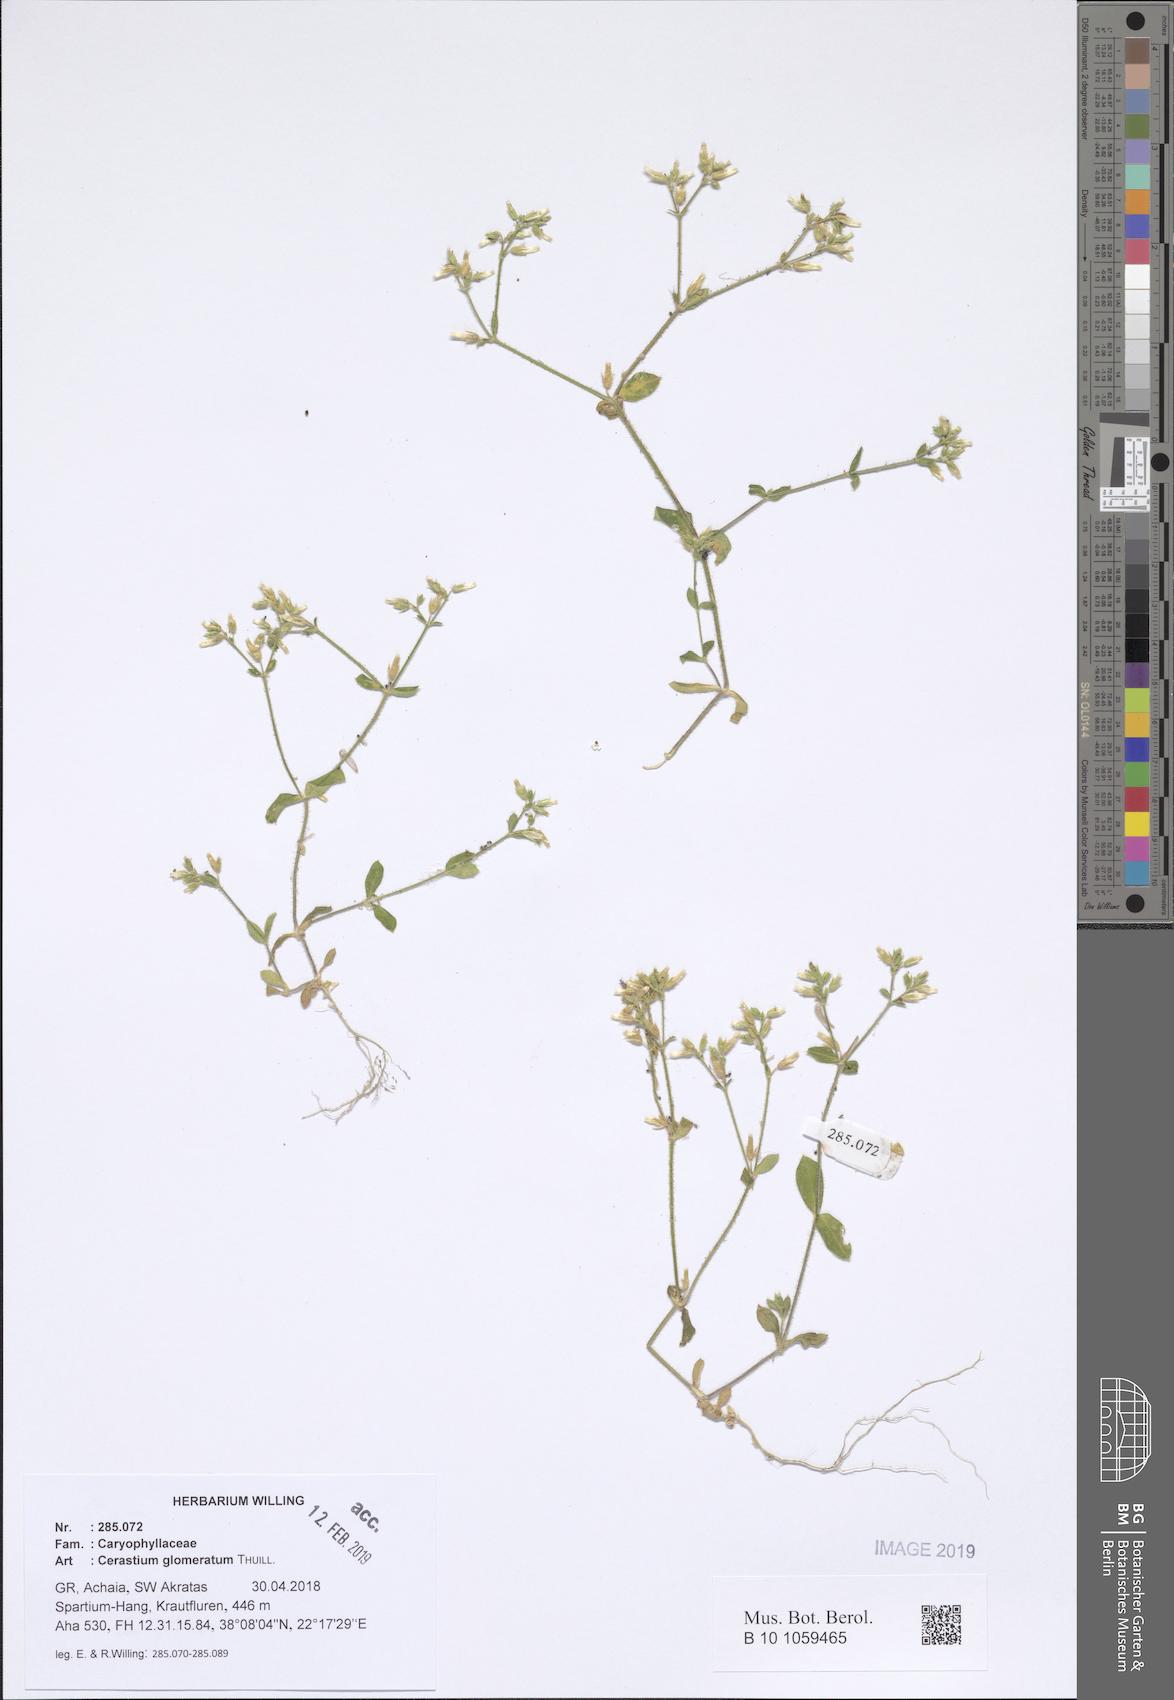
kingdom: Plantae
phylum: Tracheophyta
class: Magnoliopsida
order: Caryophyllales
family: Caryophyllaceae
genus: Cerastium
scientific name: Cerastium glomeratum
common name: Sticky chickweed
